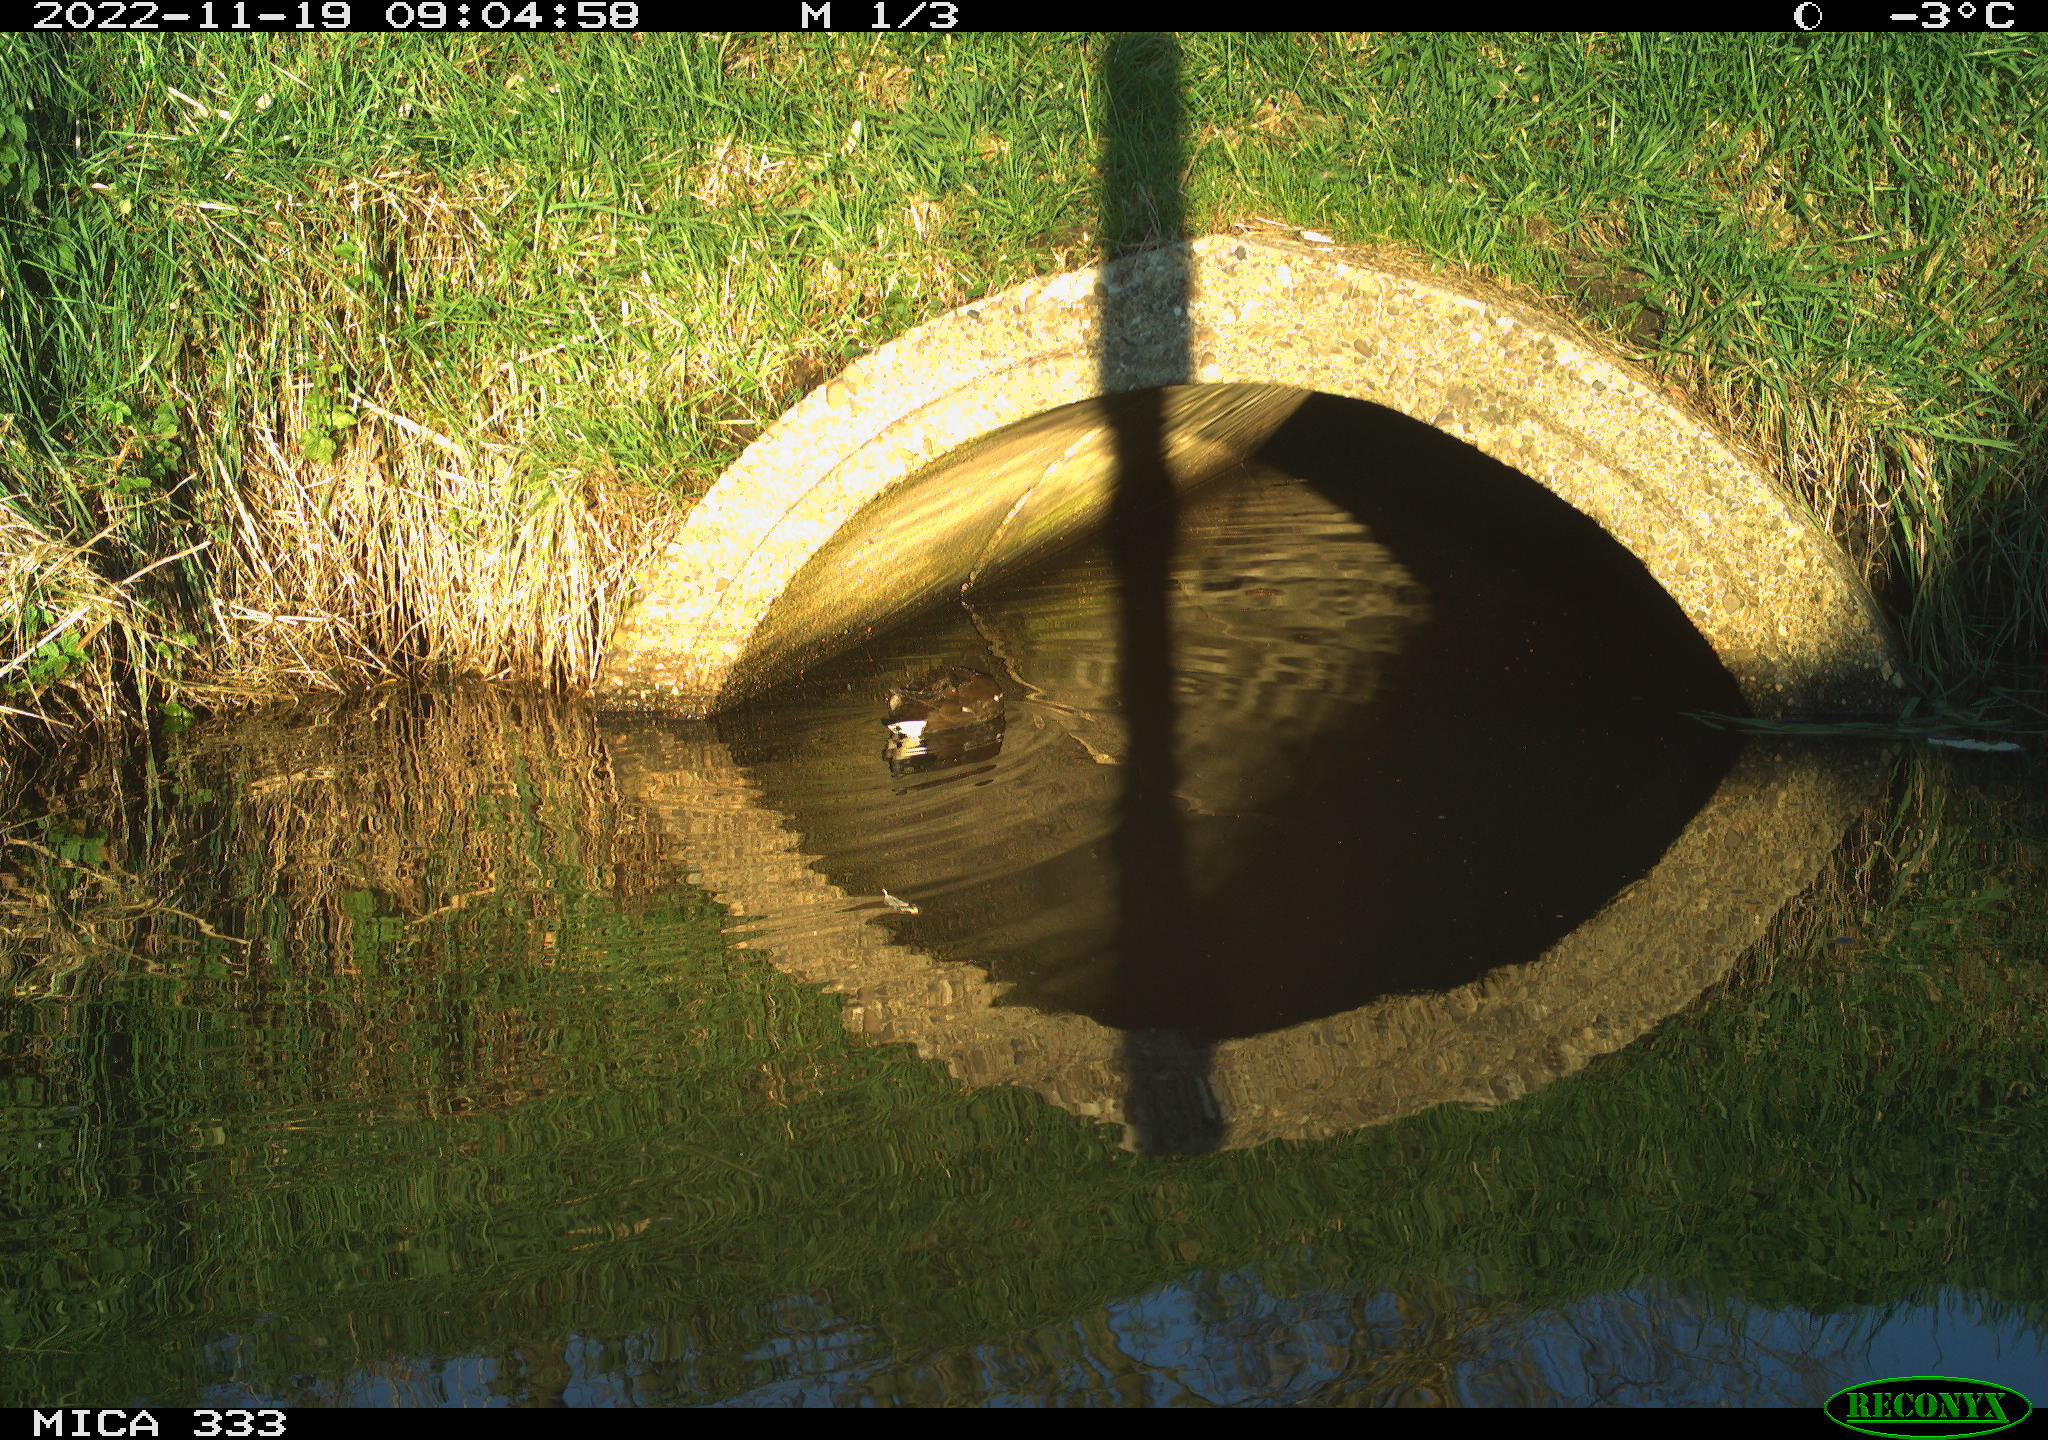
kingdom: Animalia
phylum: Chordata
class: Aves
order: Anseriformes
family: Anatidae
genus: Anas
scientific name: Anas
